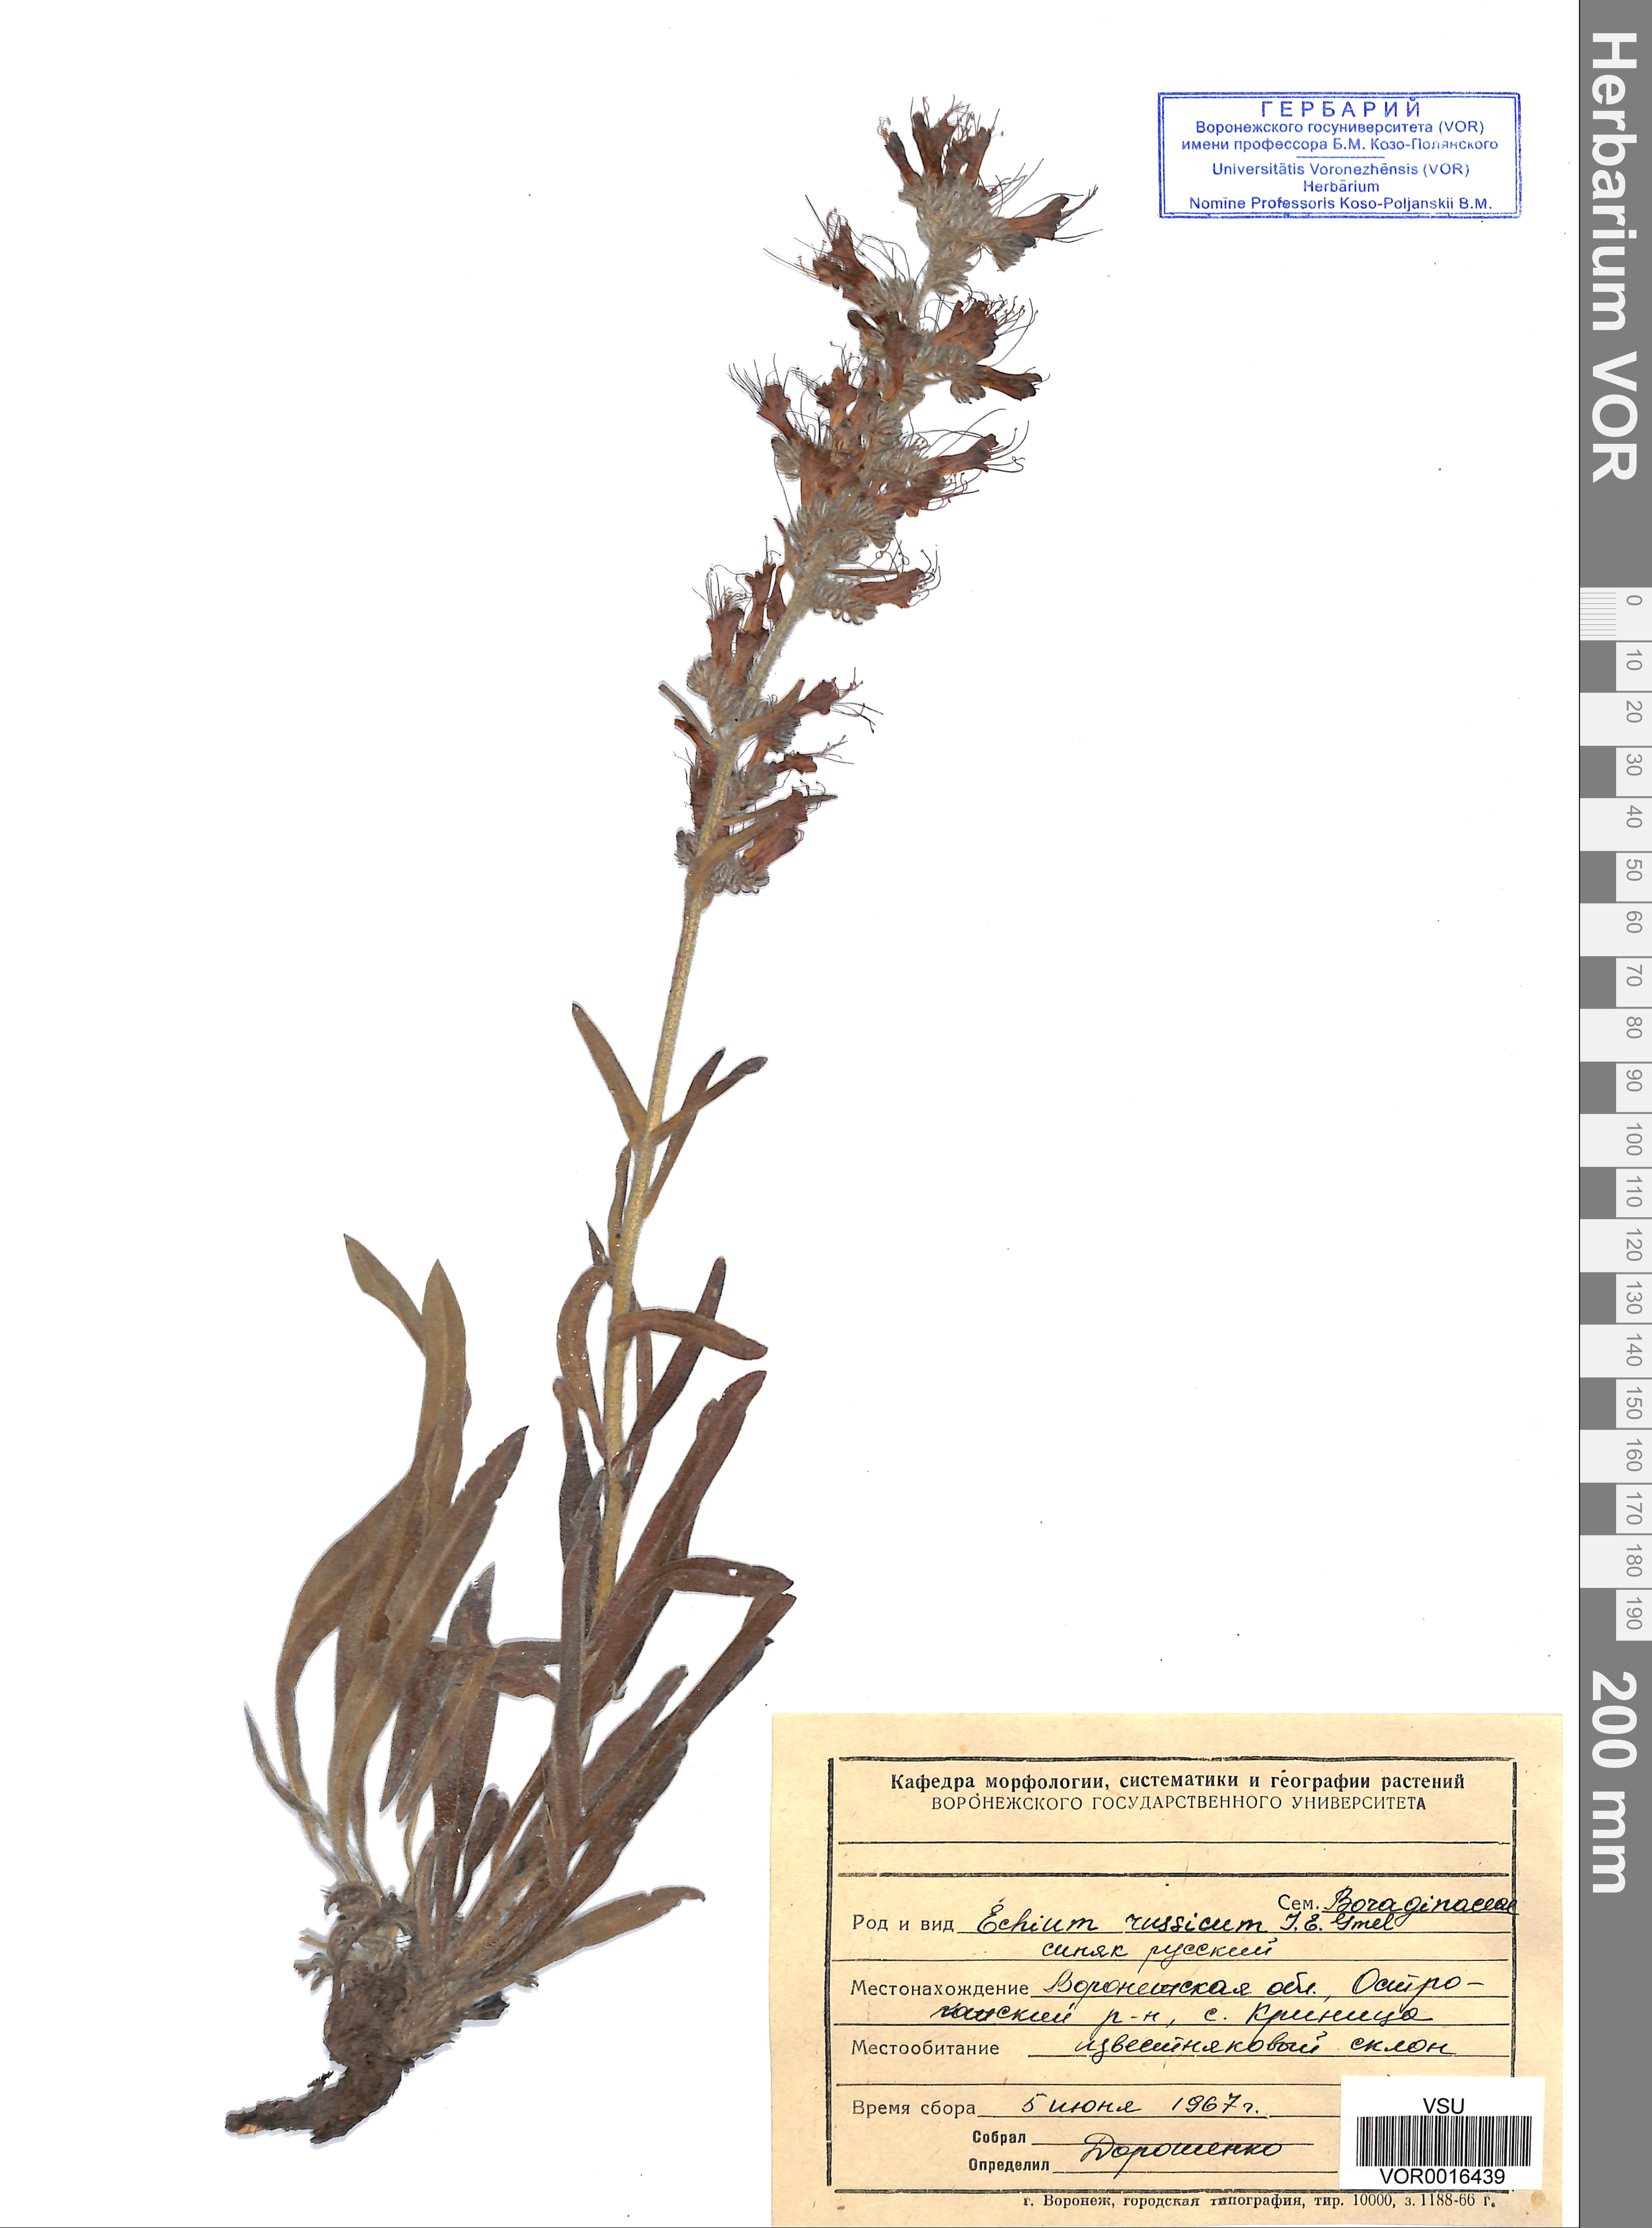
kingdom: Plantae
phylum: Tracheophyta
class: Magnoliopsida
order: Boraginales
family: Boraginaceae
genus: Pontechium
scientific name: Pontechium maculatum
